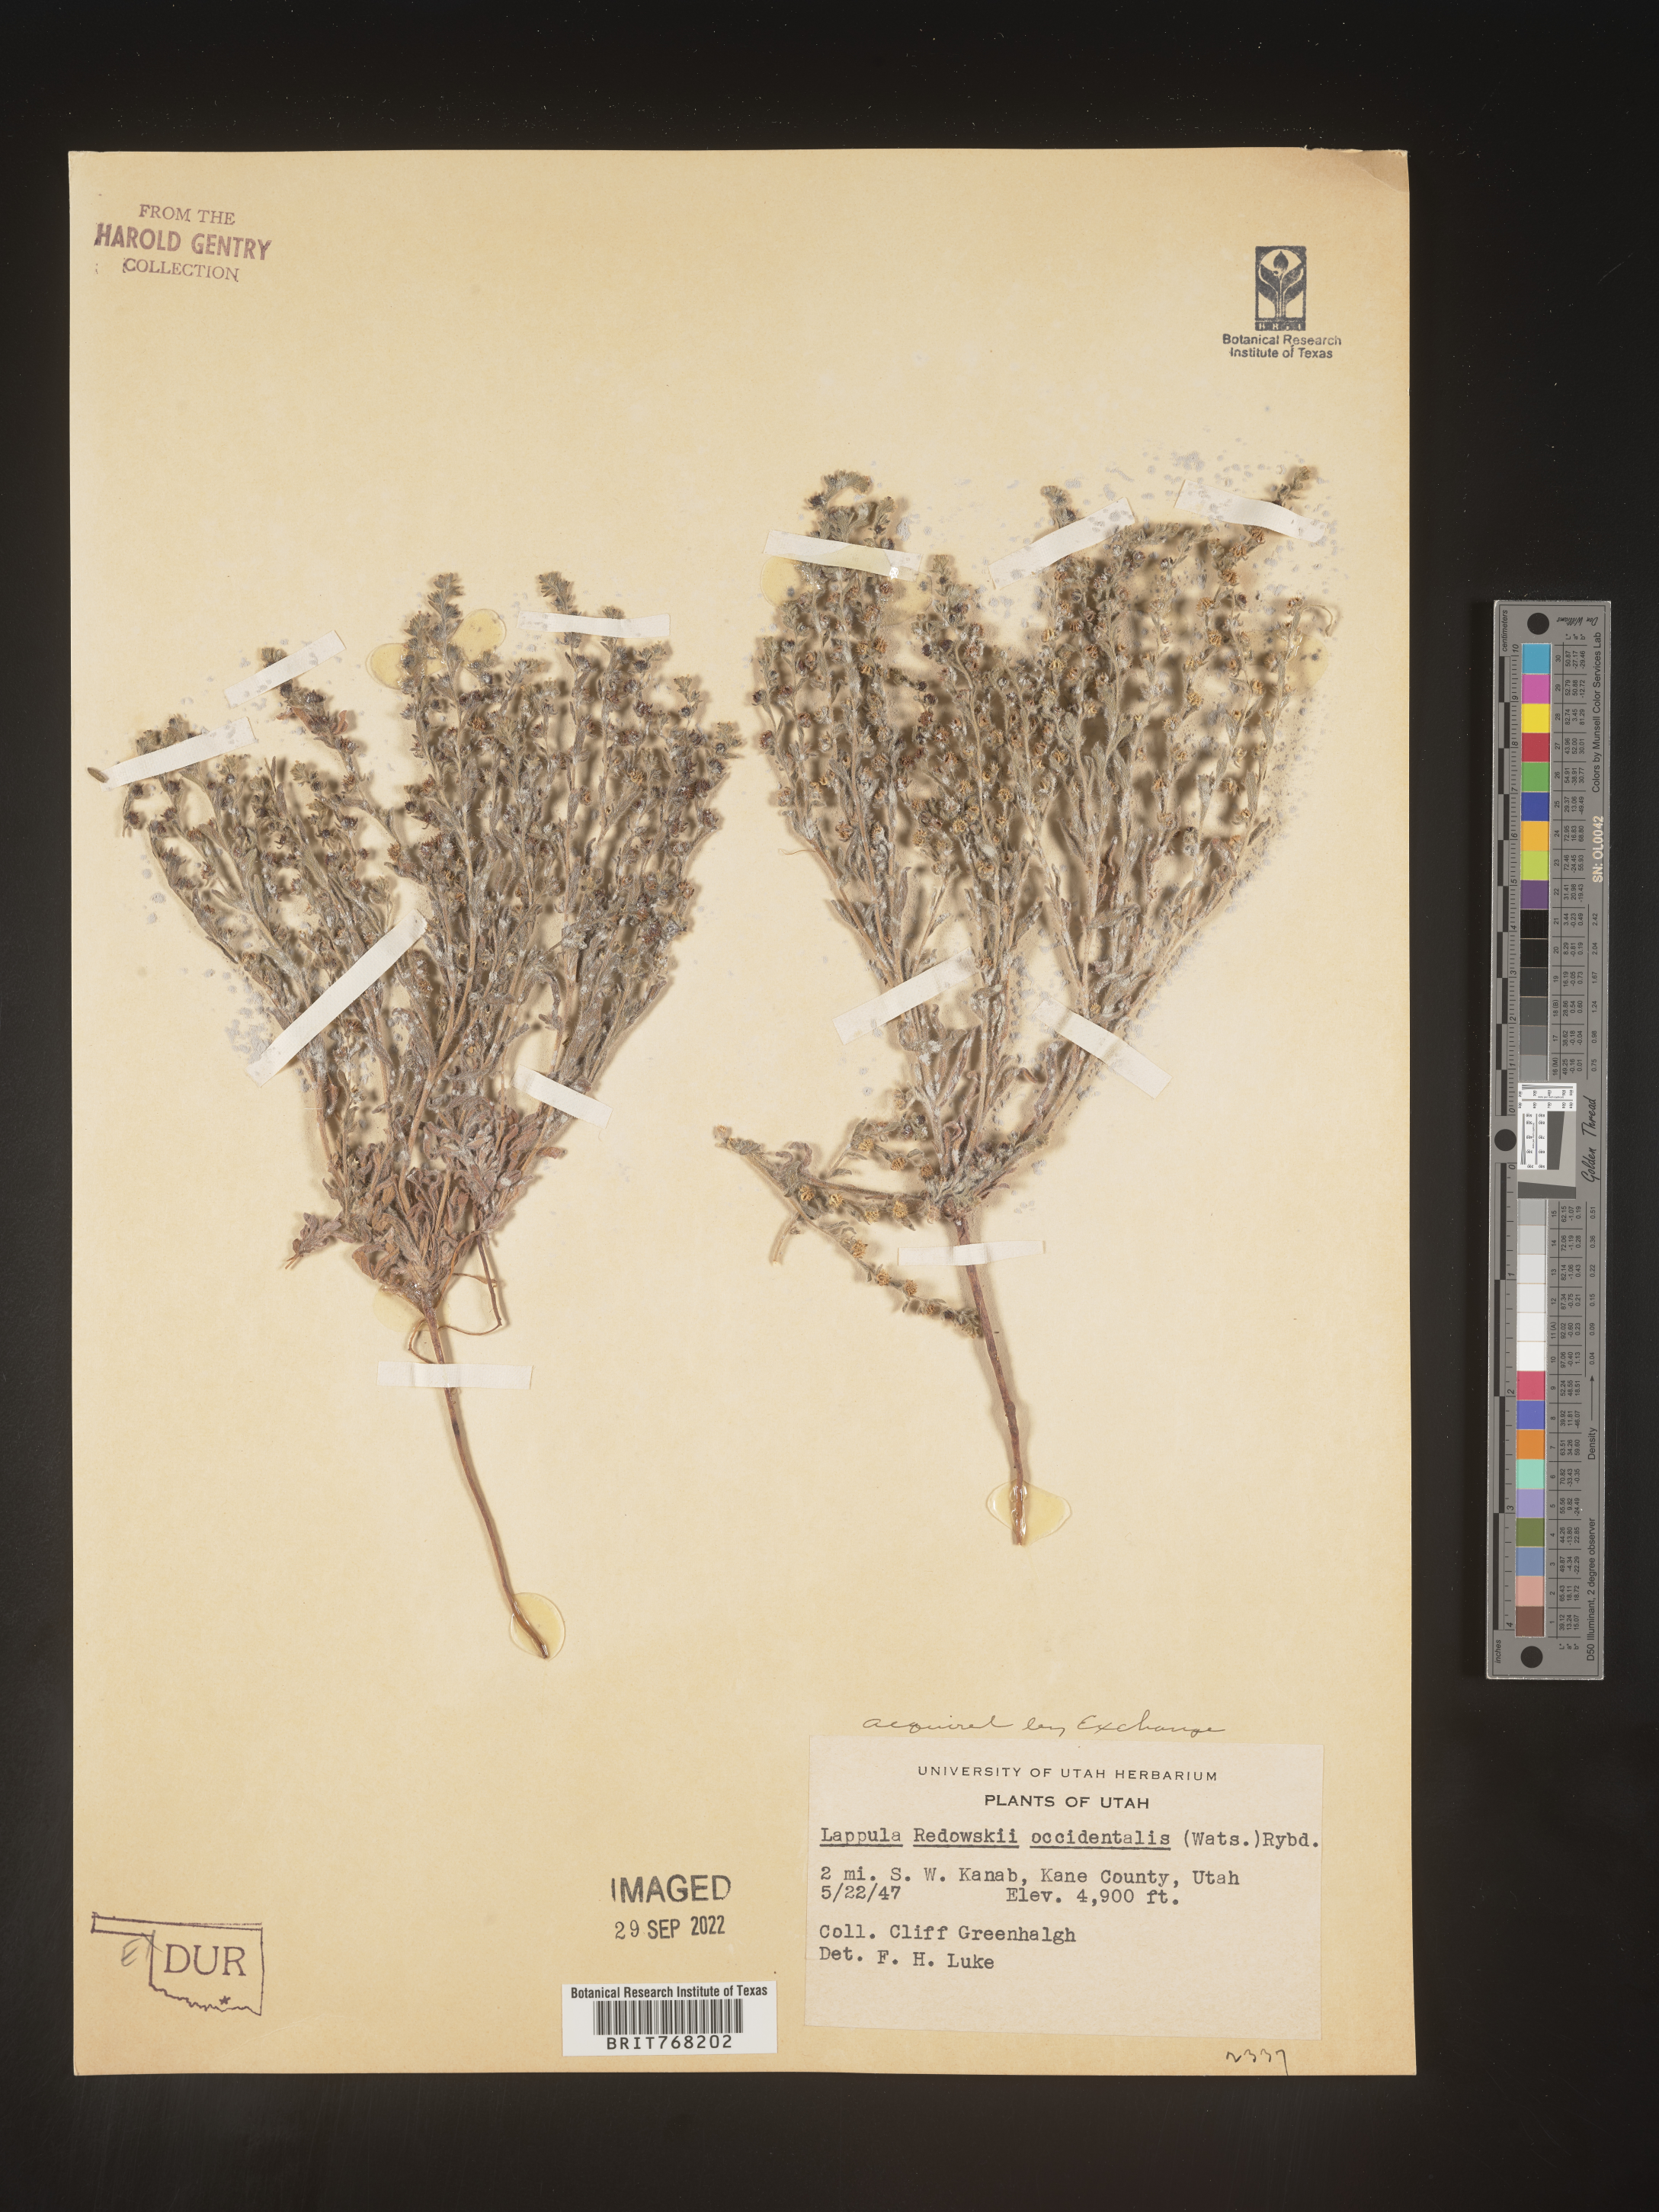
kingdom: Plantae
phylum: Tracheophyta
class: Magnoliopsida
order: Boraginales
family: Boraginaceae
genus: Lappula
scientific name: Lappula
